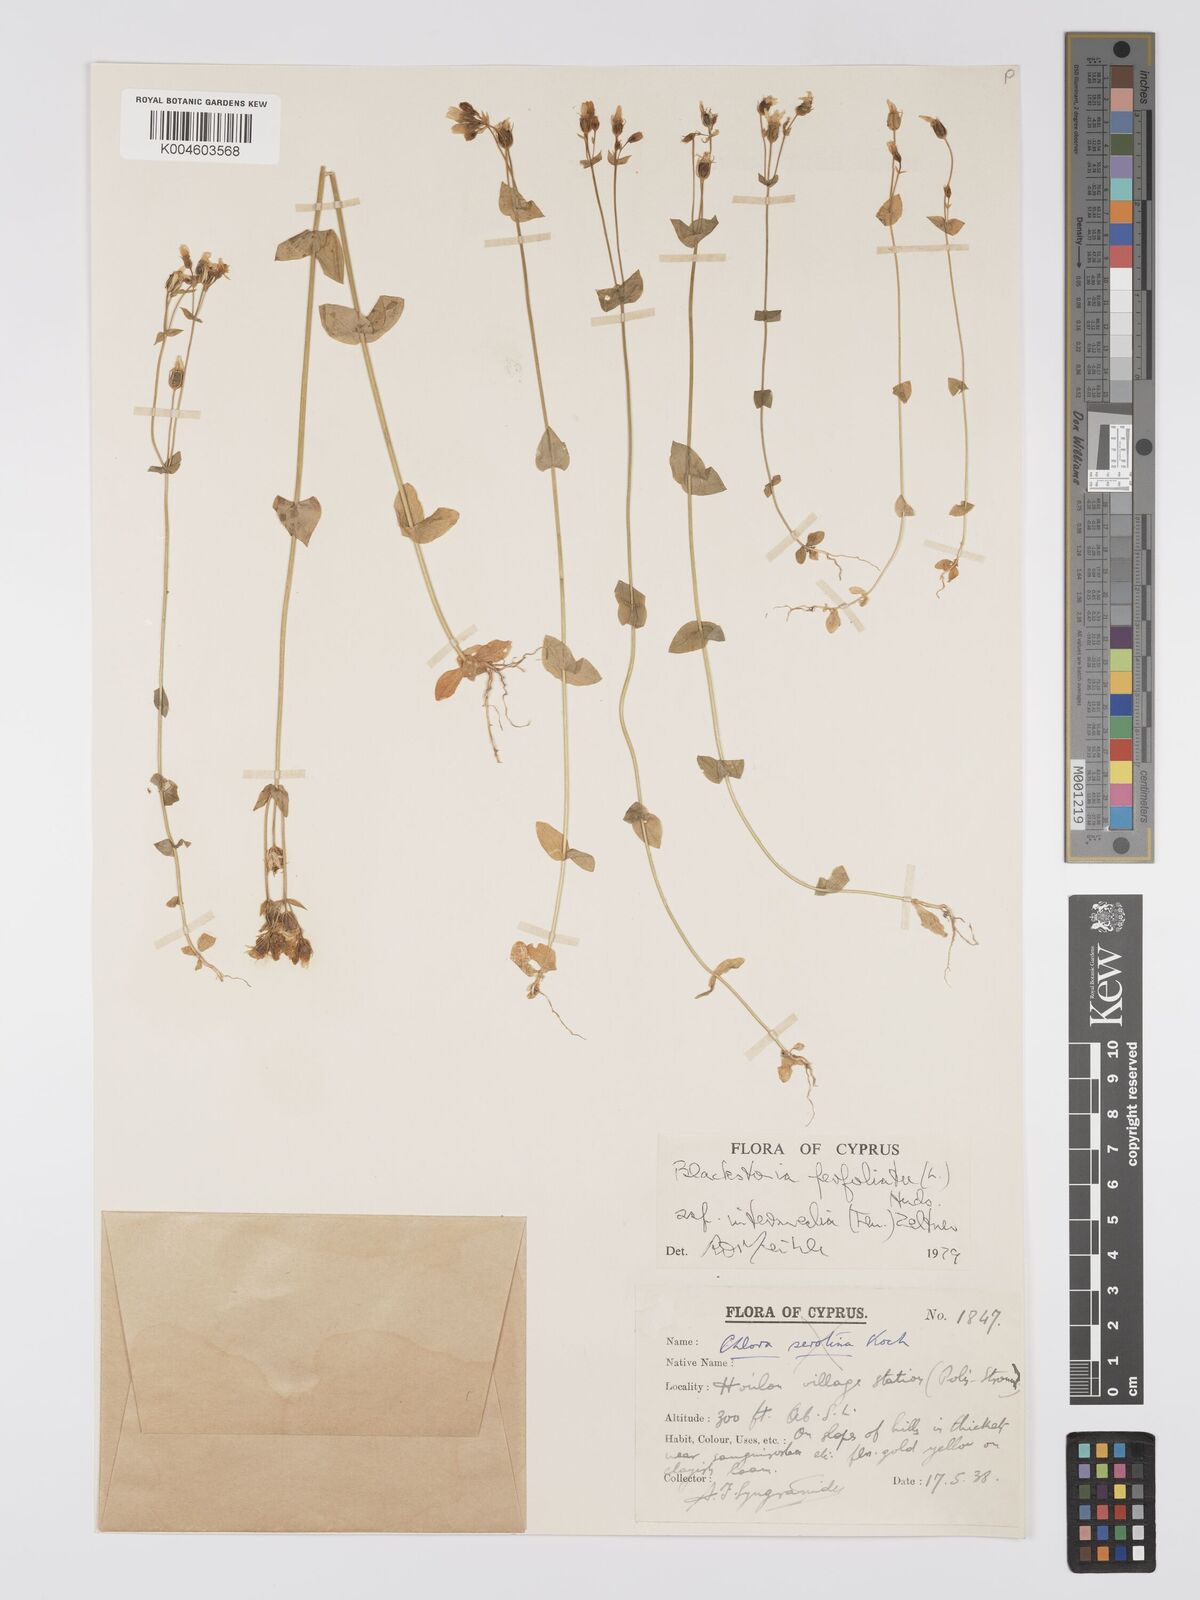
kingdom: Plantae
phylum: Tracheophyta
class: Magnoliopsida
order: Gentianales
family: Gentianaceae
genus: Blackstonia
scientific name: Blackstonia perfoliata
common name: Yellow-wort
